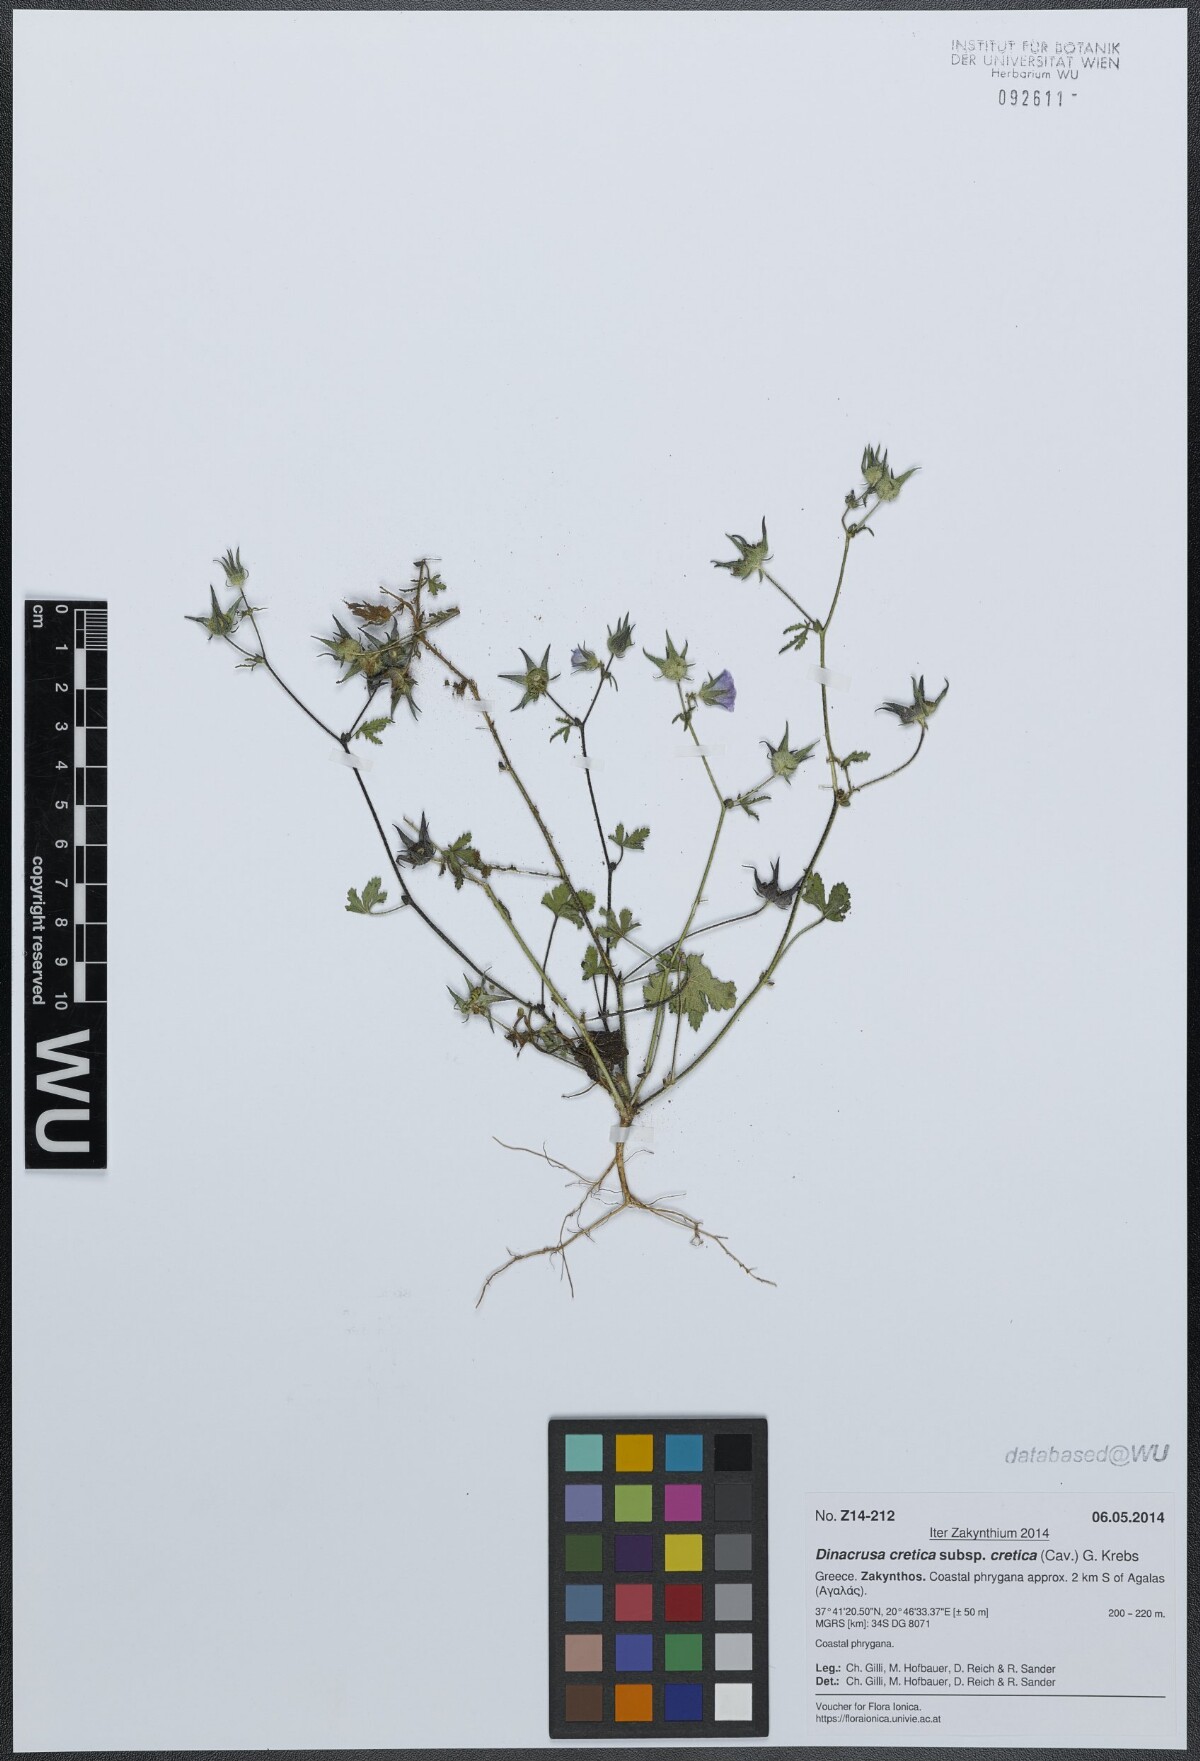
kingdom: Plantae
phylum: Tracheophyta
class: Magnoliopsida
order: Malvales
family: Malvaceae
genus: Malva
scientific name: Malva cretica
